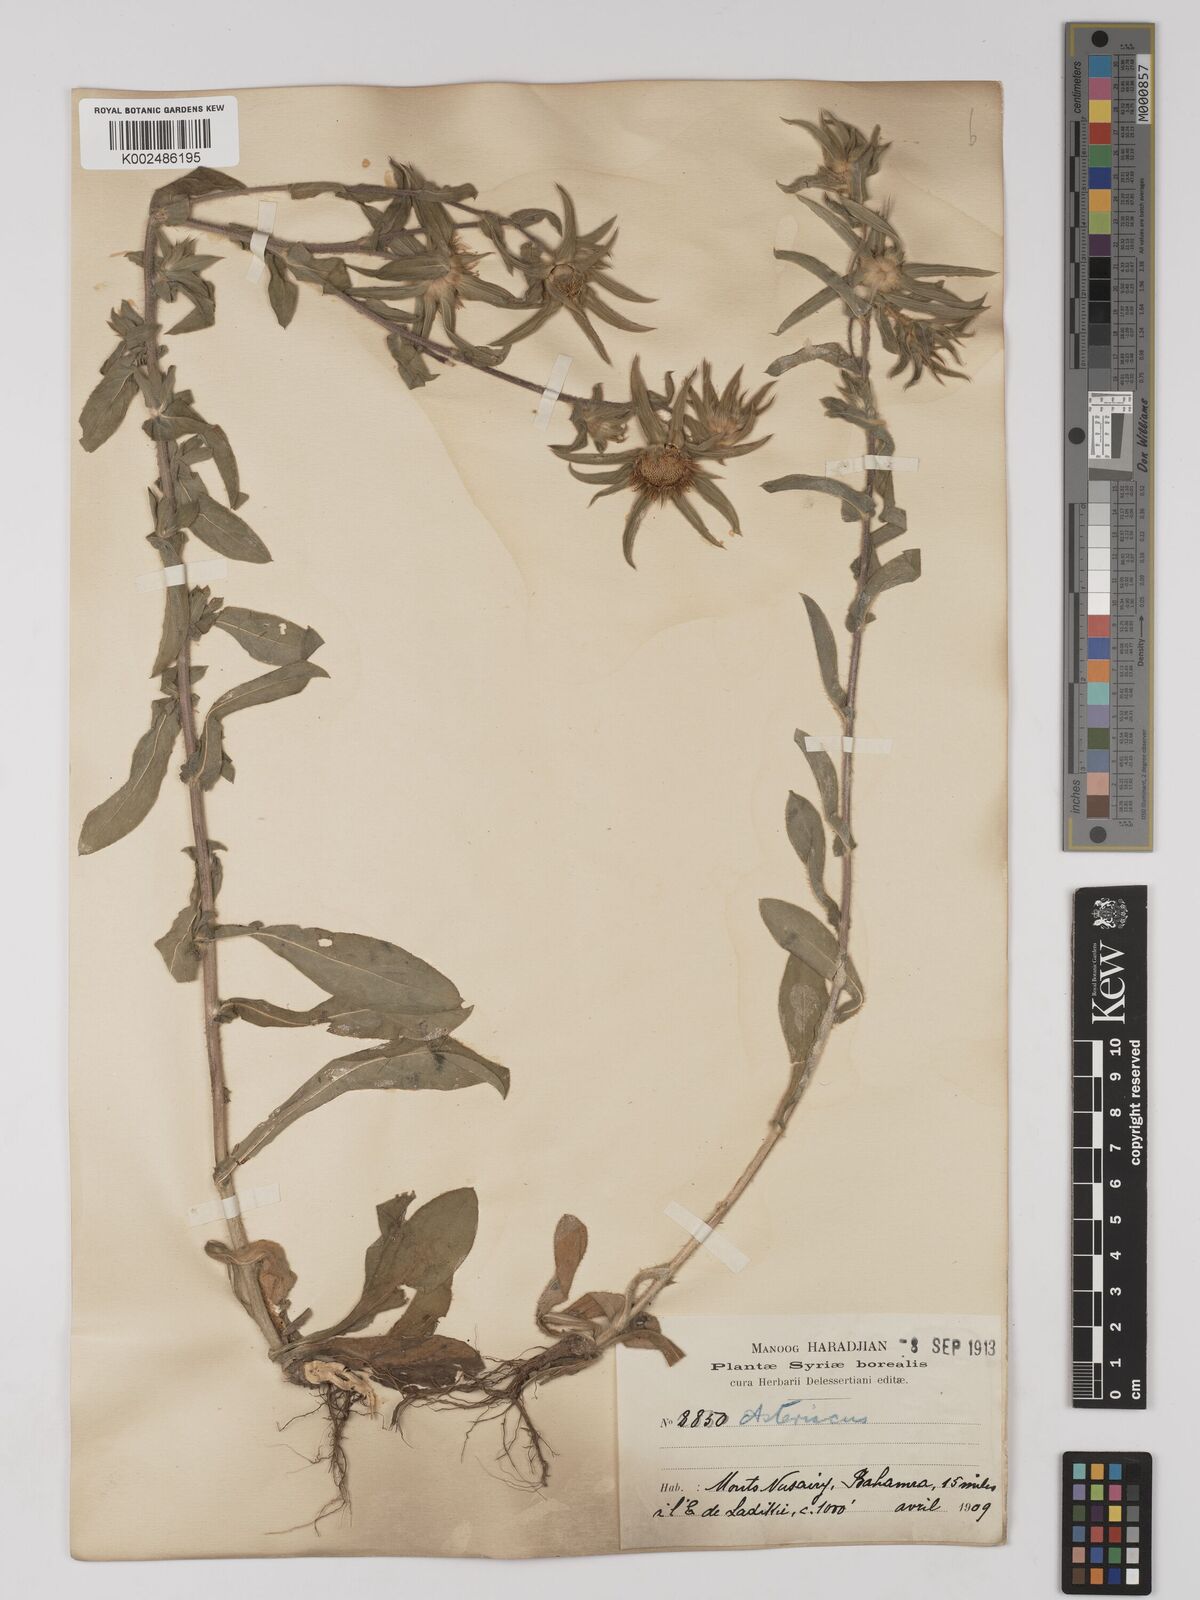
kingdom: Plantae
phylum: Tracheophyta
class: Magnoliopsida
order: Asterales
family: Asteraceae
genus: Pallenis
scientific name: Pallenis spinosa
